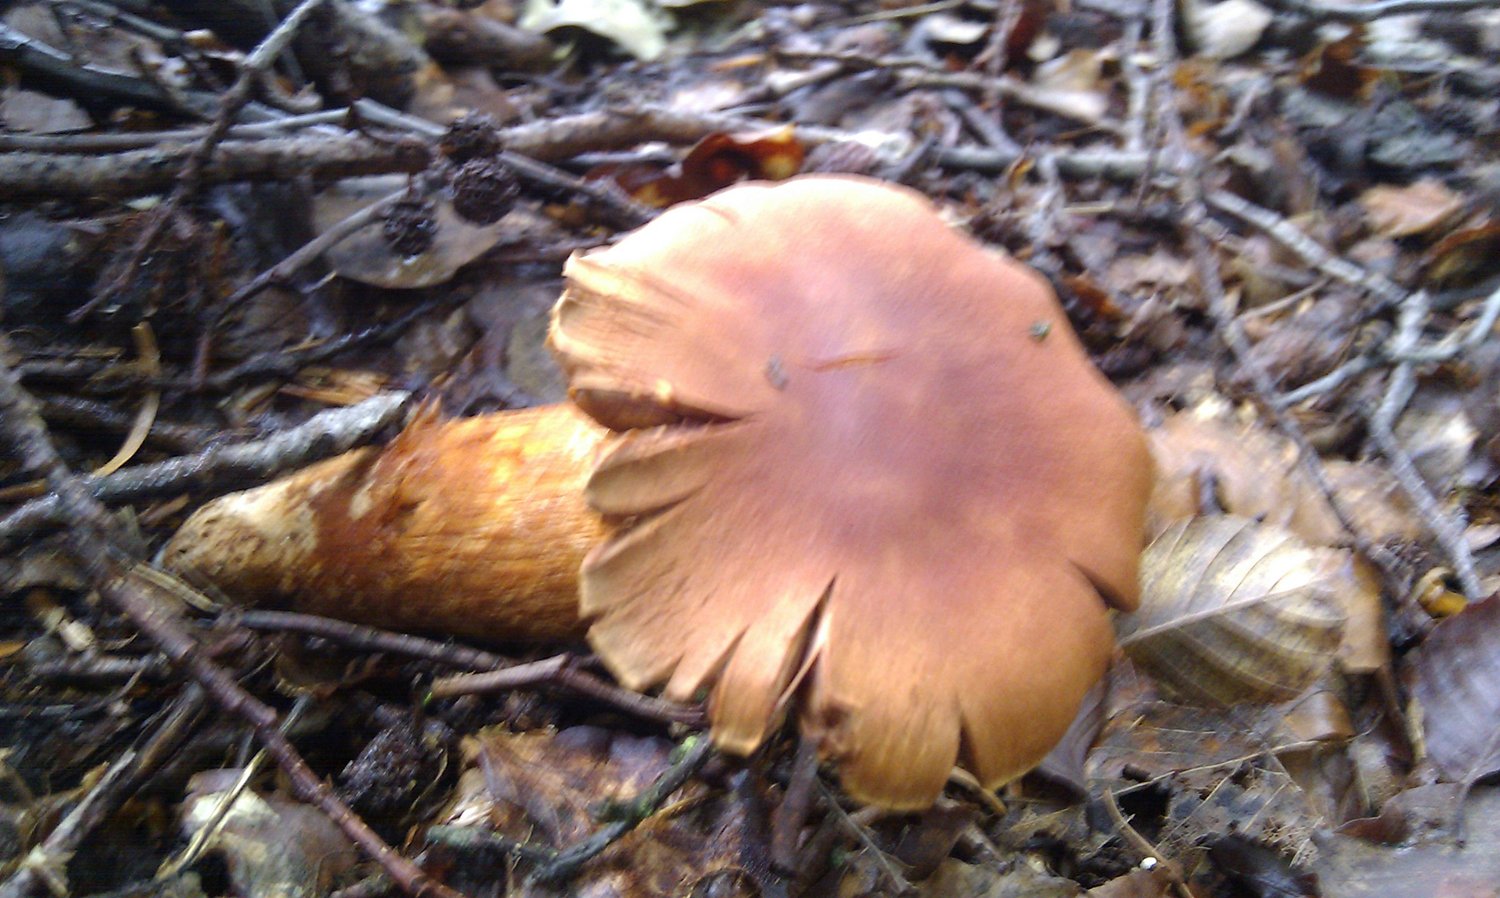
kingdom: Fungi
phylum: Basidiomycota
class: Agaricomycetes
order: Agaricales
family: Cortinariaceae
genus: Cortinarius
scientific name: Cortinarius rubellus
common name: puklet gift-slørhat
